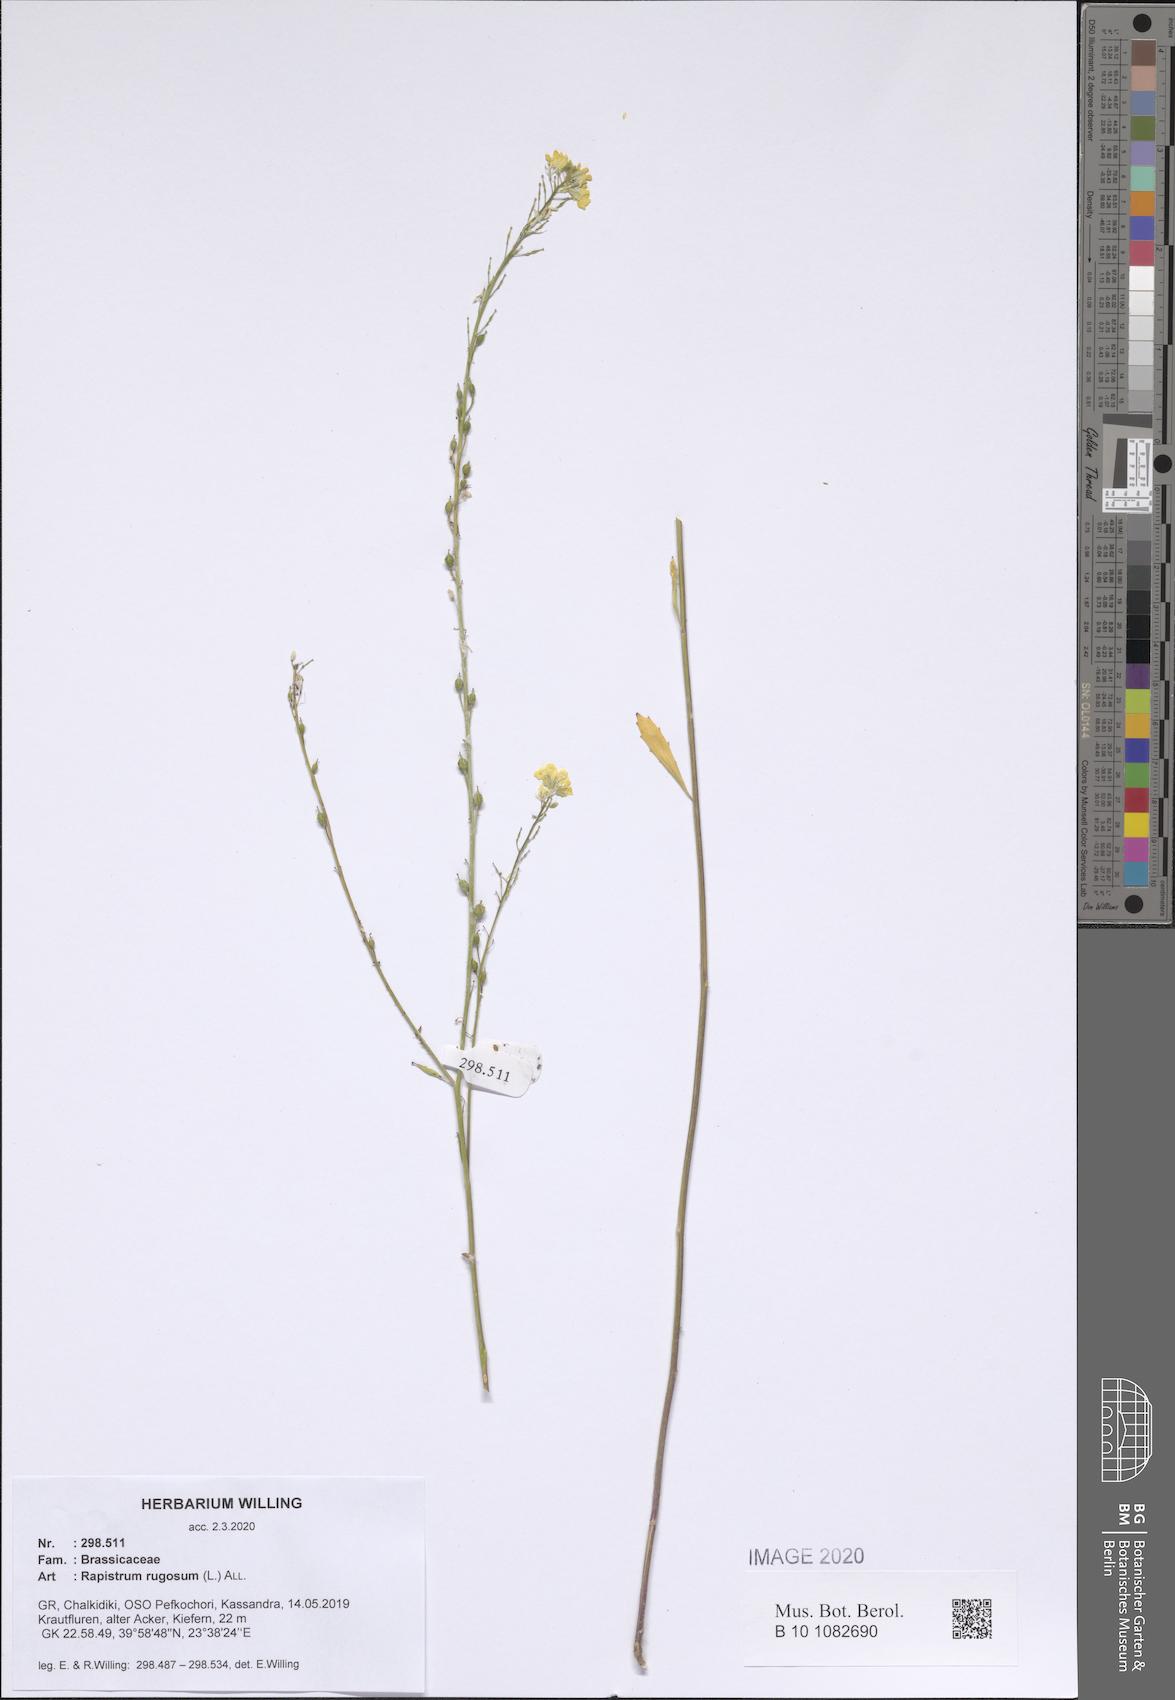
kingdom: Plantae
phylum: Tracheophyta
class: Magnoliopsida
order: Brassicales
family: Brassicaceae
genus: Rapistrum
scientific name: Rapistrum rugosum
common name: Annual bastardcabbage
